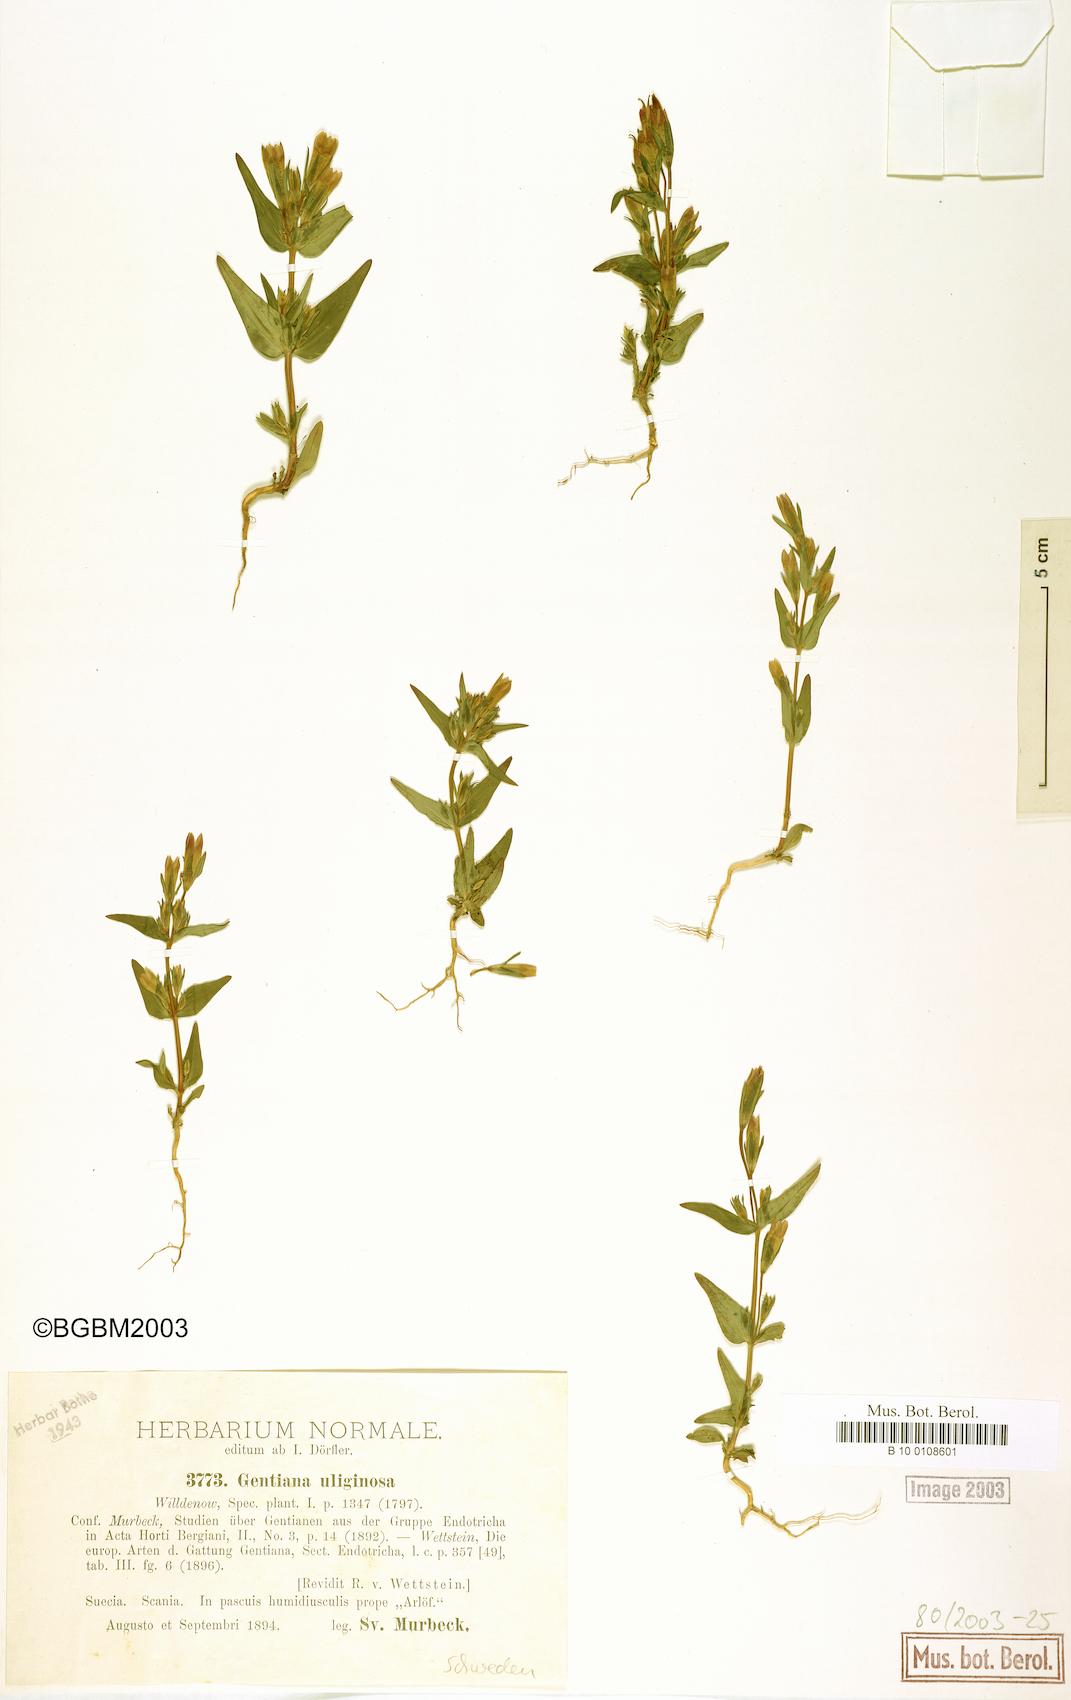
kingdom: Plantae
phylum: Tracheophyta
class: Magnoliopsida
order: Gentianales
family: Gentianaceae
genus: Gentianella
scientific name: Gentianella uliginosa
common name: Dune gentian
